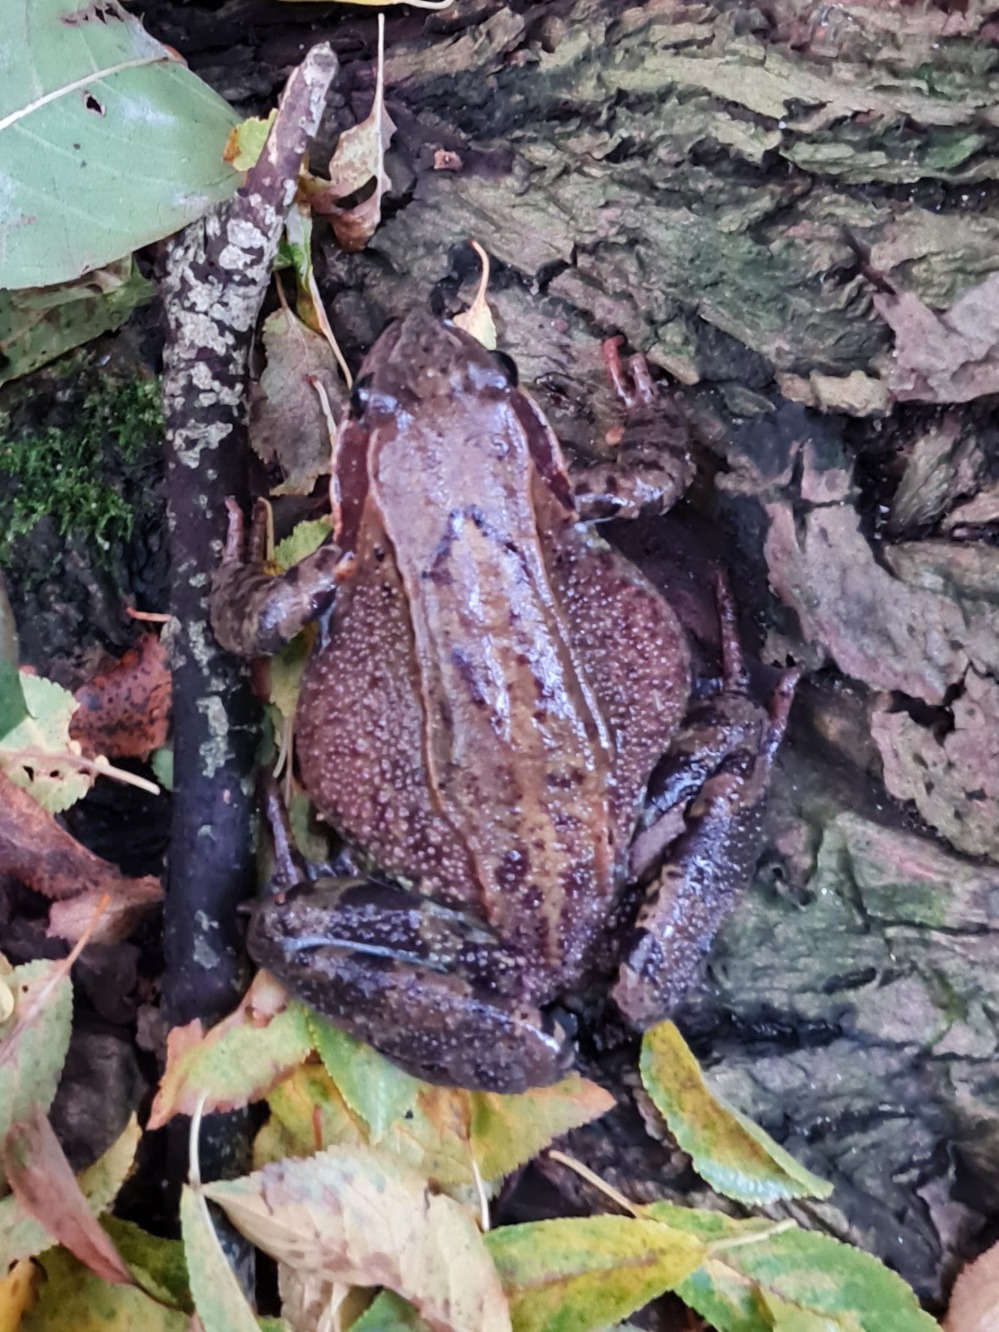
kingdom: Animalia
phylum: Chordata
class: Amphibia
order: Anura
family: Ranidae
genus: Rana
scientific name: Rana temporaria
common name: Butsnudet frø
